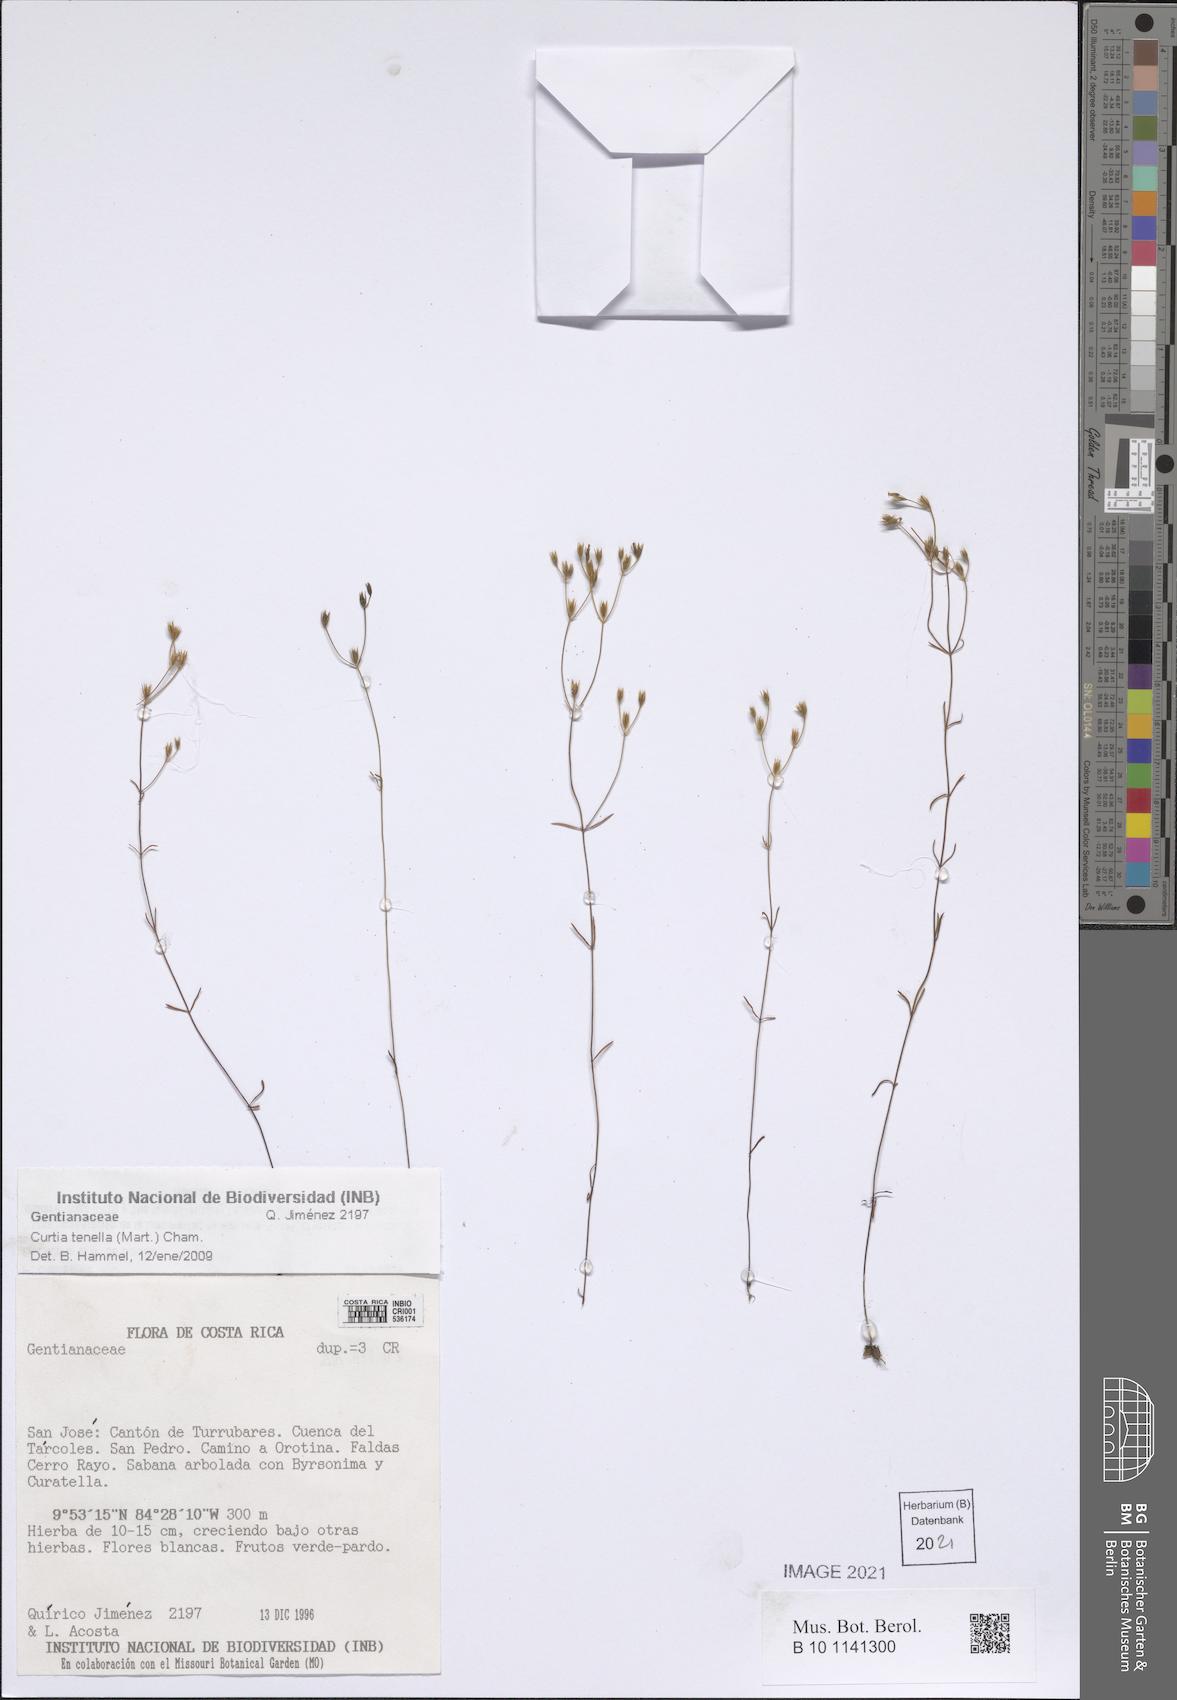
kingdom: Plantae
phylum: Tracheophyta
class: Magnoliopsida
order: Gentianales
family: Gentianaceae
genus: Curtia
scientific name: Curtia tenella
